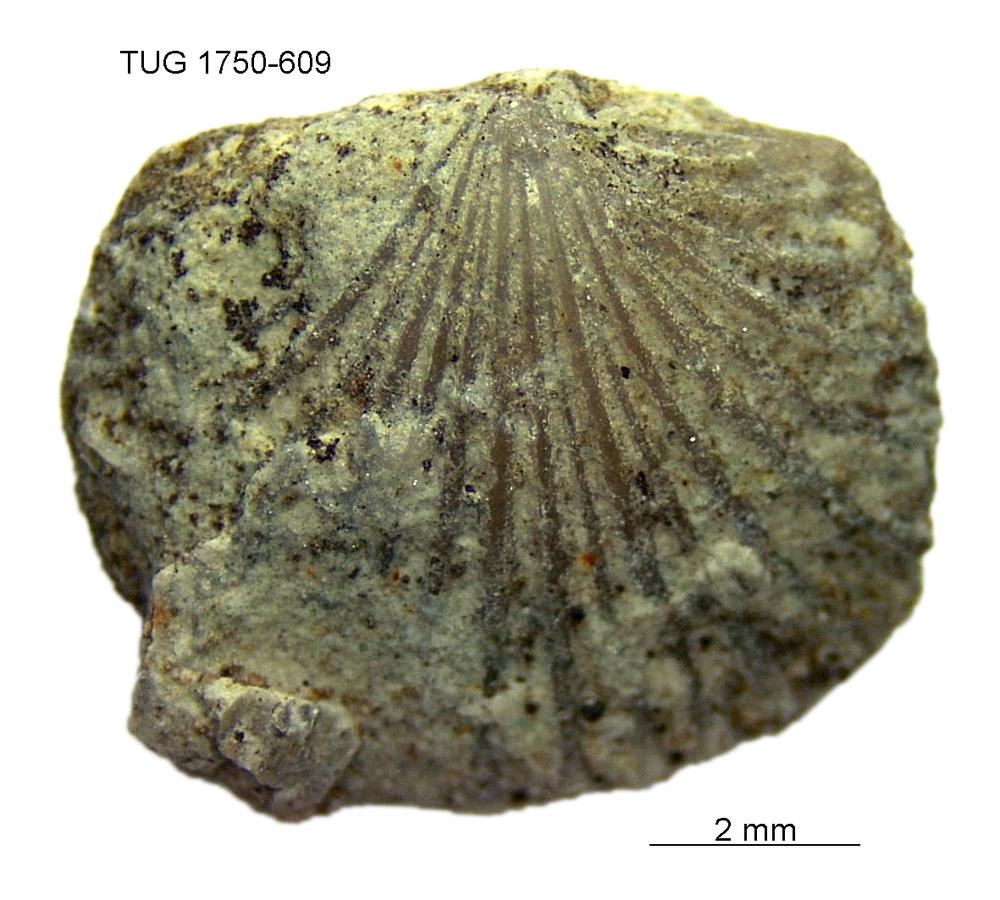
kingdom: Animalia
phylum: Brachiopoda
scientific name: Brachiopoda
